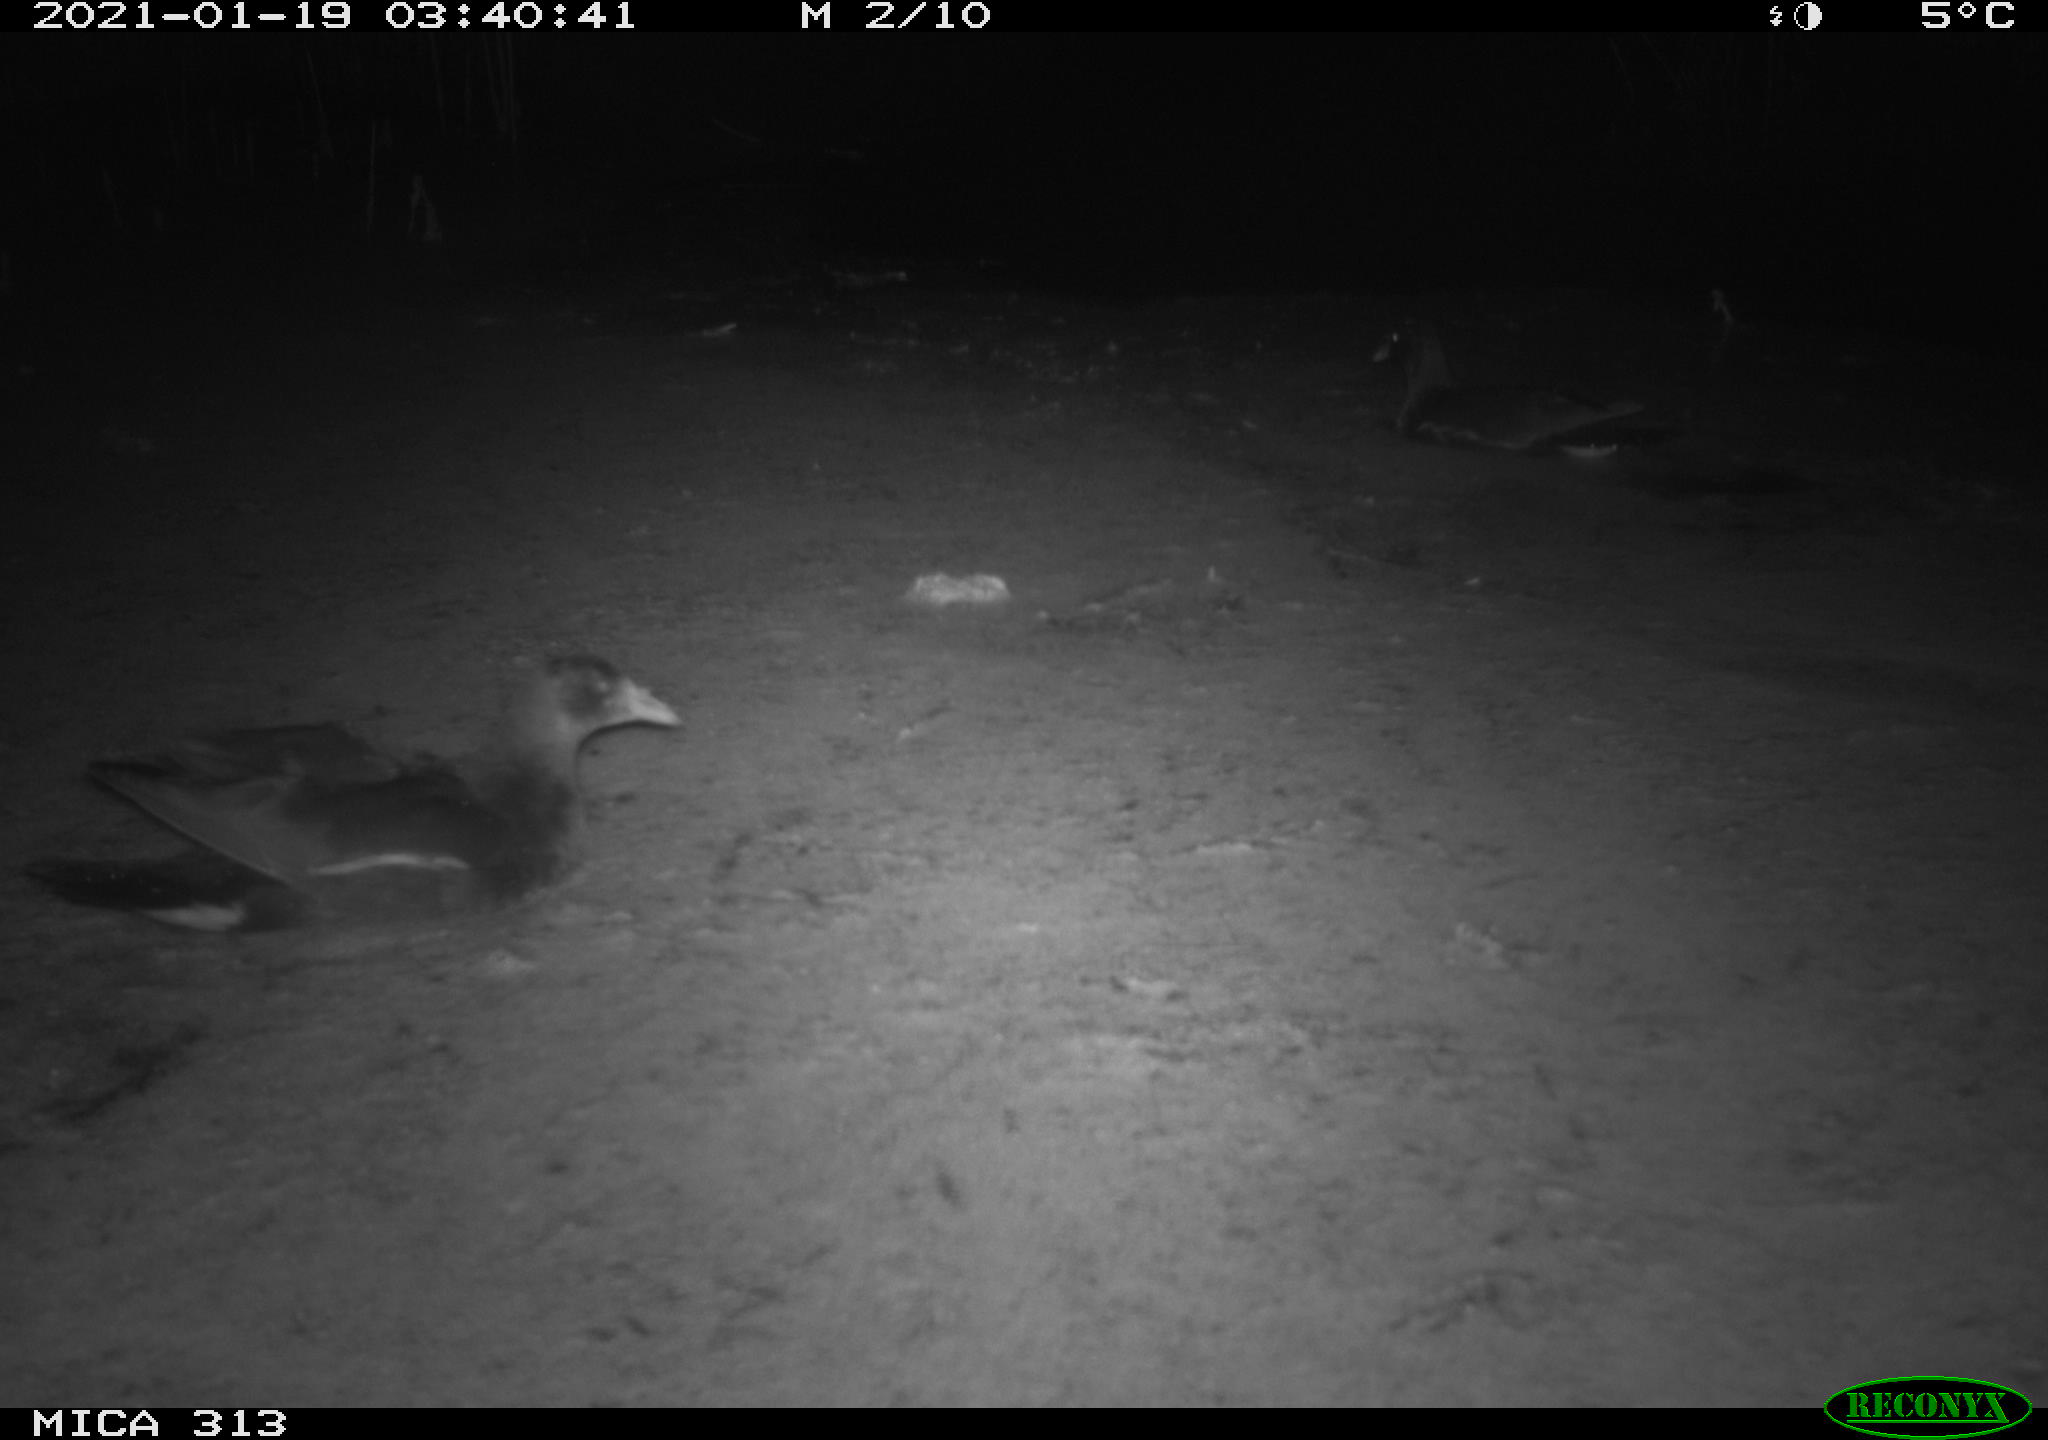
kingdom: Animalia
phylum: Chordata
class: Aves
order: Gruiformes
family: Rallidae
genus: Gallinula
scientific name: Gallinula chloropus
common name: Common moorhen
